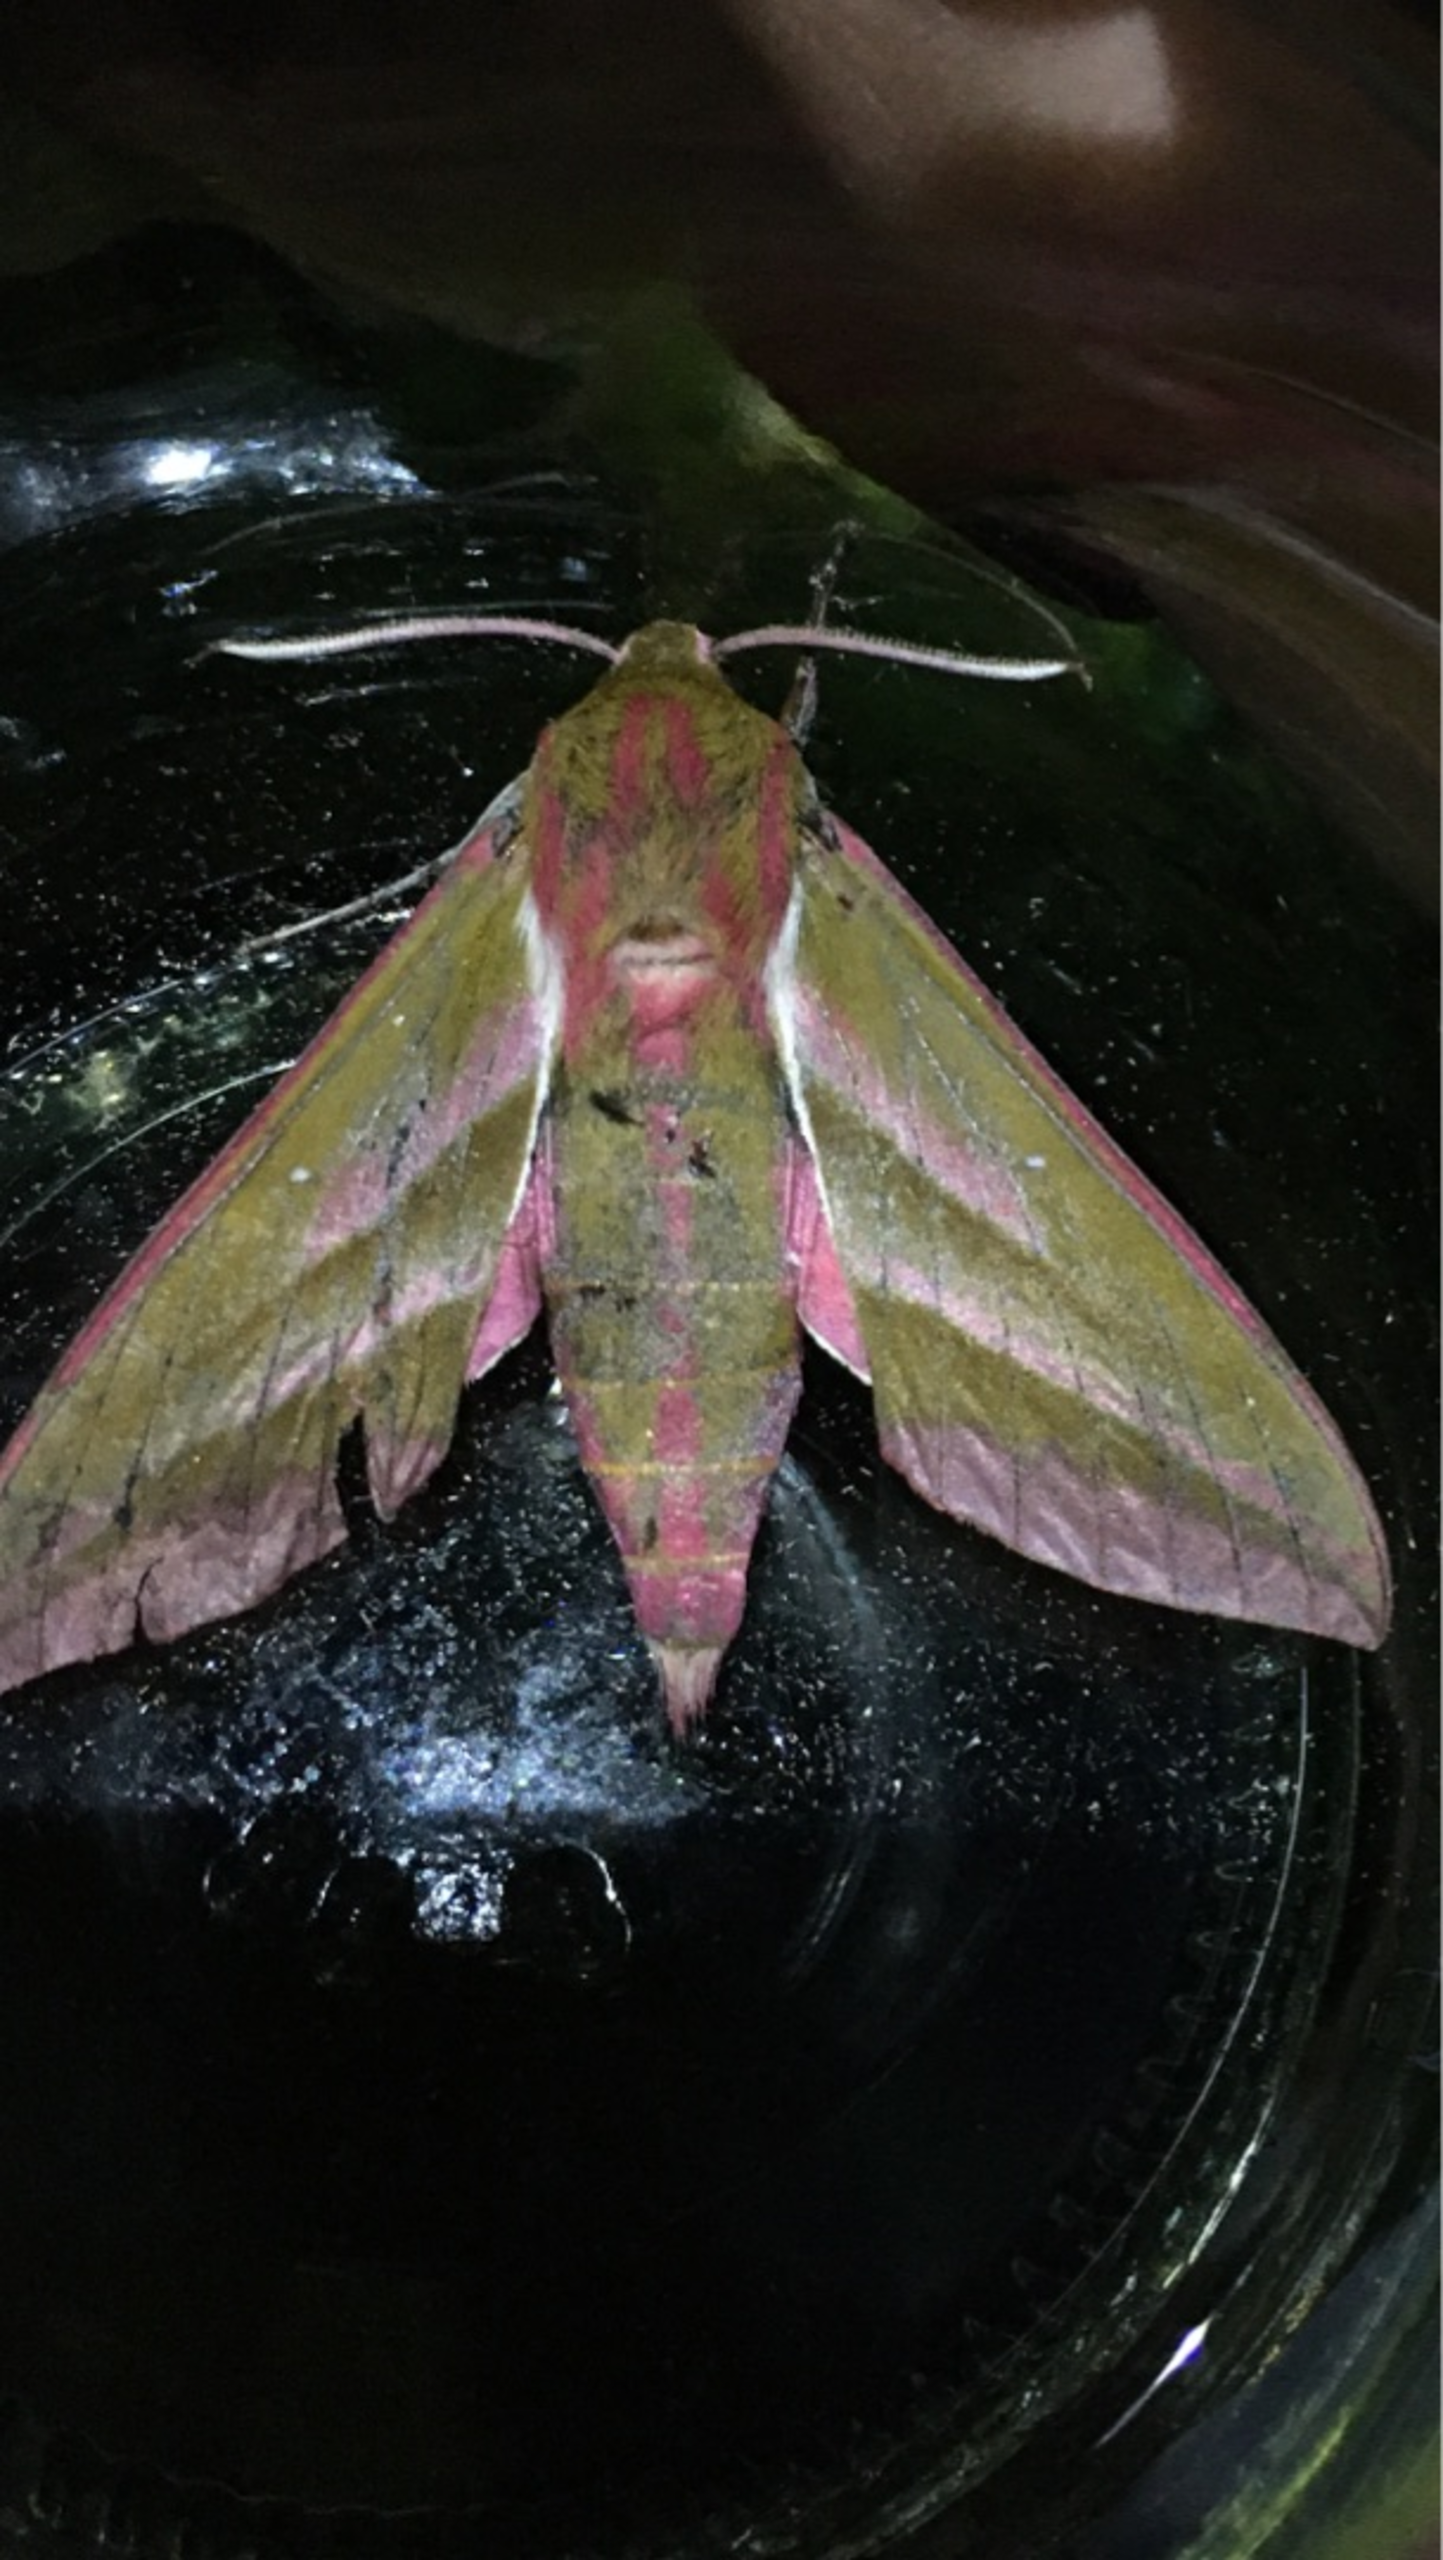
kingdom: Animalia
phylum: Arthropoda
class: Insecta
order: Lepidoptera
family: Sphingidae
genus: Deilephila
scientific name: Deilephila elpenor
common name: Dueurtsværmer
